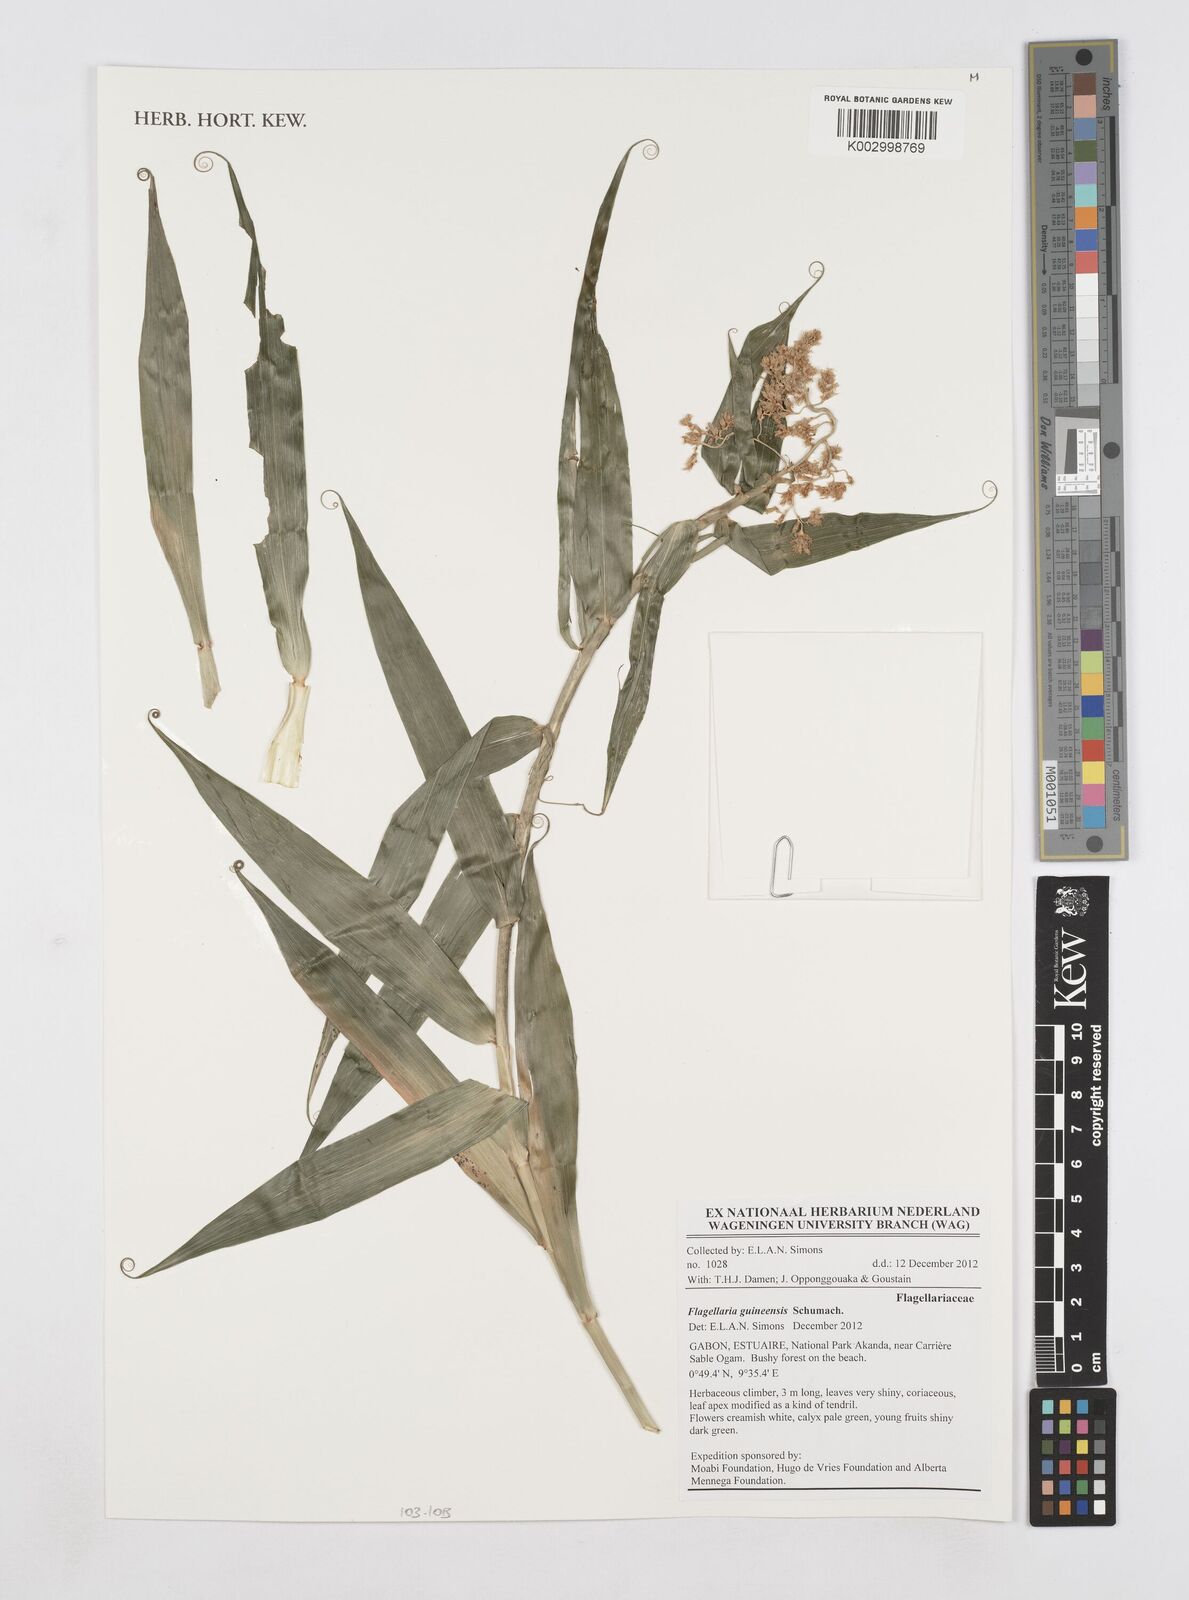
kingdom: Plantae
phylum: Tracheophyta
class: Liliopsida
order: Poales
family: Flagellariaceae
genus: Flagellaria
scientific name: Flagellaria guineensis
